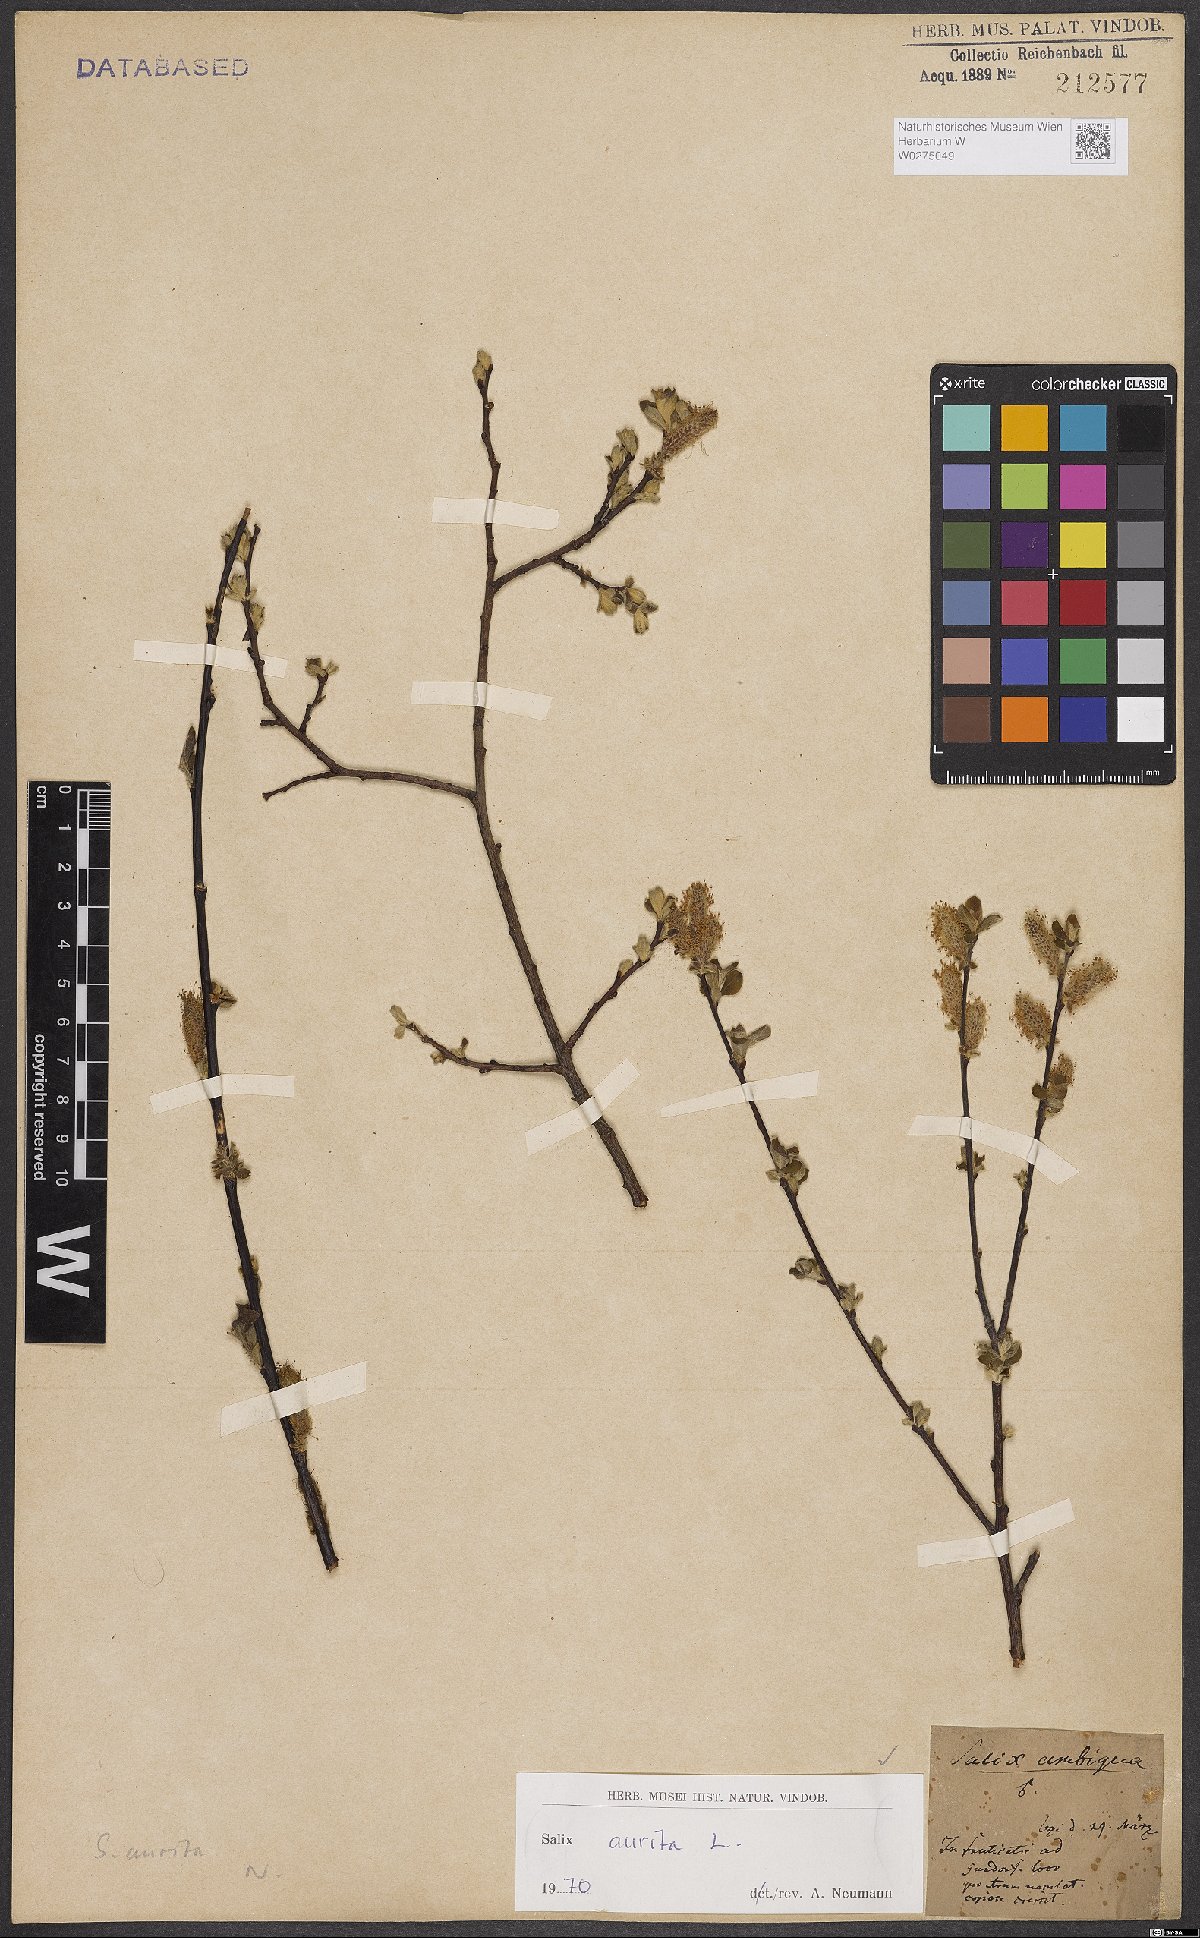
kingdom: Plantae
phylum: Tracheophyta
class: Magnoliopsida
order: Malpighiales
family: Salicaceae
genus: Salix
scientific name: Salix aurita
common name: Eared willow
